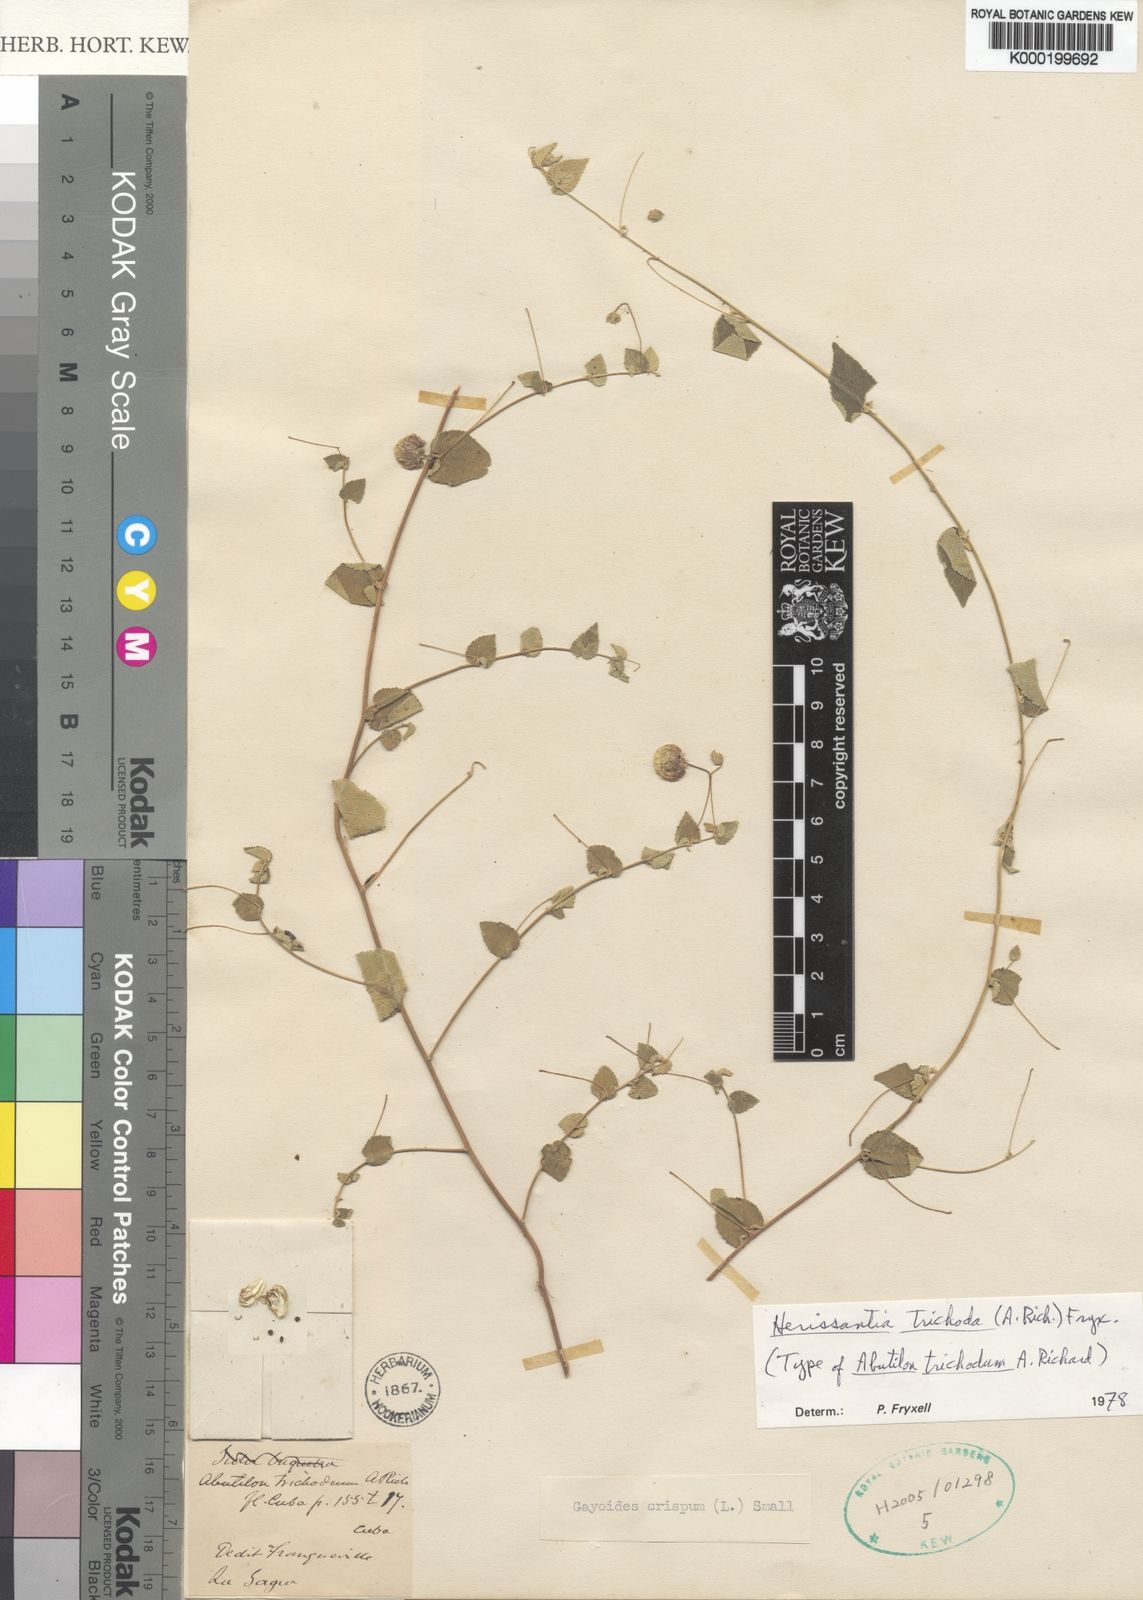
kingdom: Plantae
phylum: Tracheophyta
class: Magnoliopsida
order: Malvales
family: Malvaceae
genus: Herissantia
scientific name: Herissantia crispa
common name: Bladdermallow
